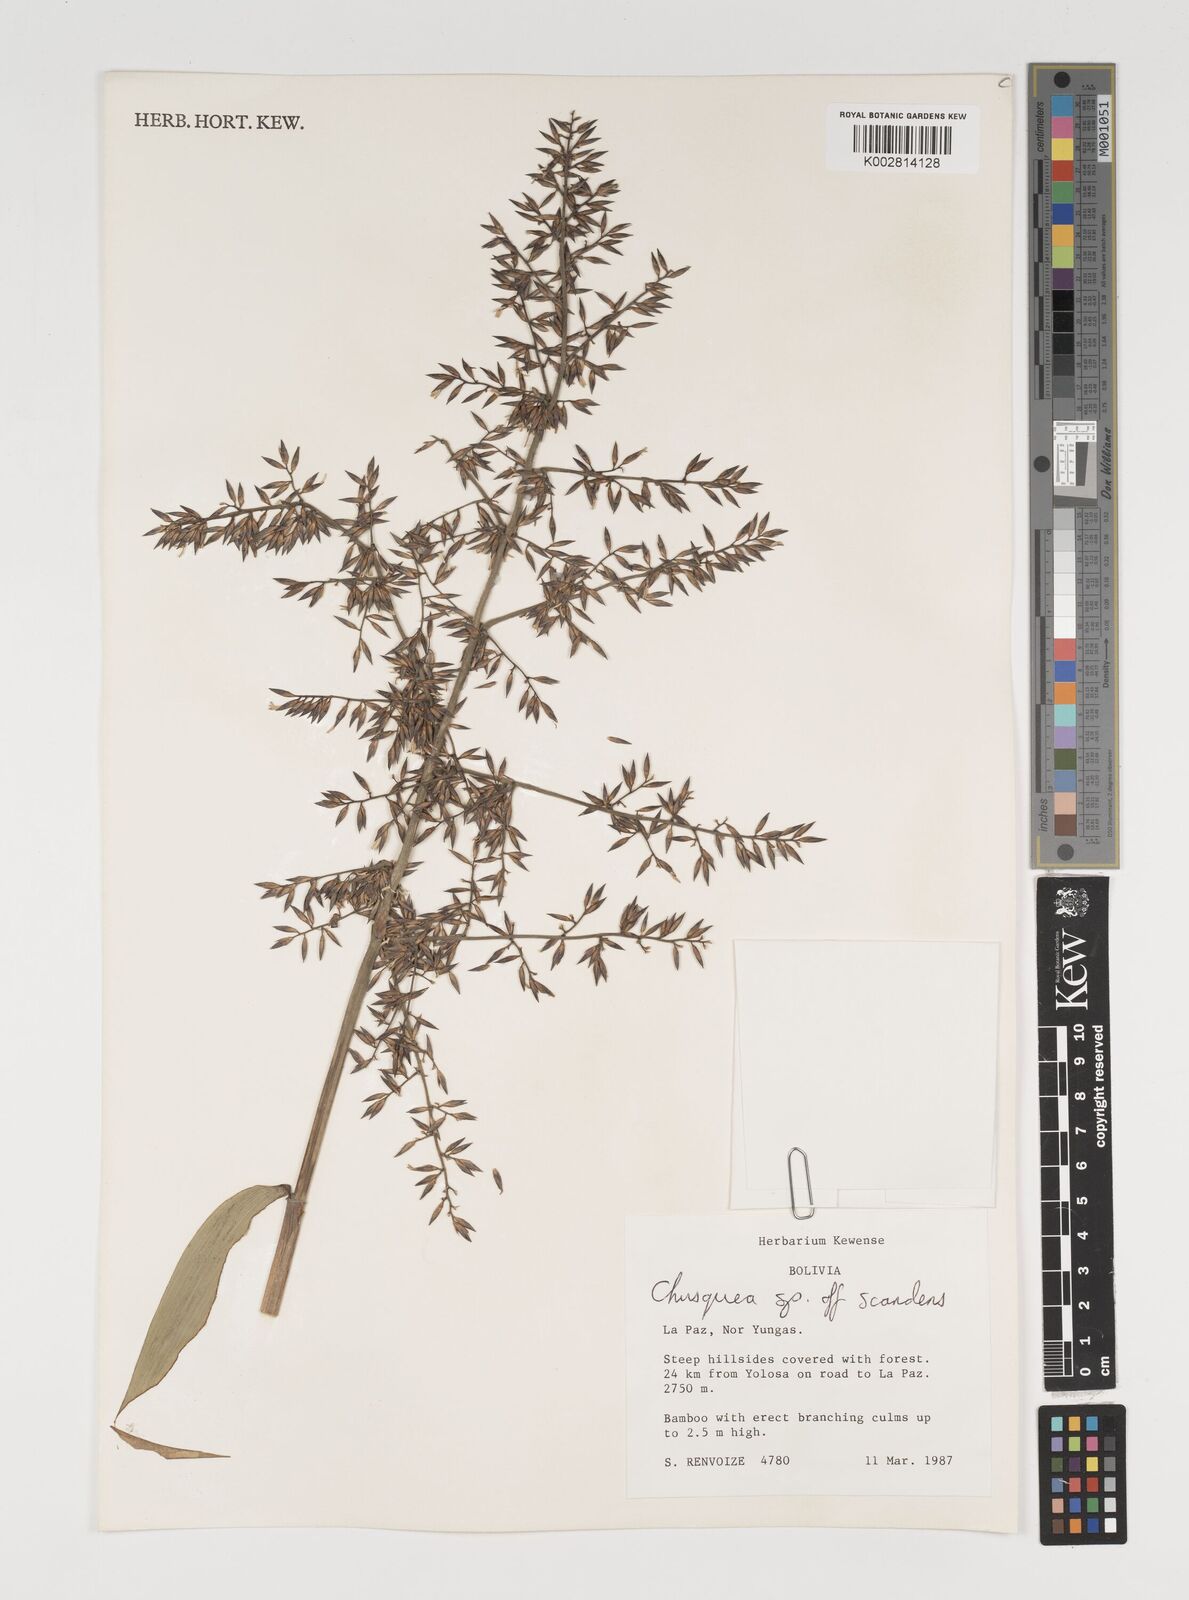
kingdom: Plantae
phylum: Tracheophyta
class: Liliopsida
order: Poales
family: Poaceae
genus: Chusquea
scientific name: Chusquea
